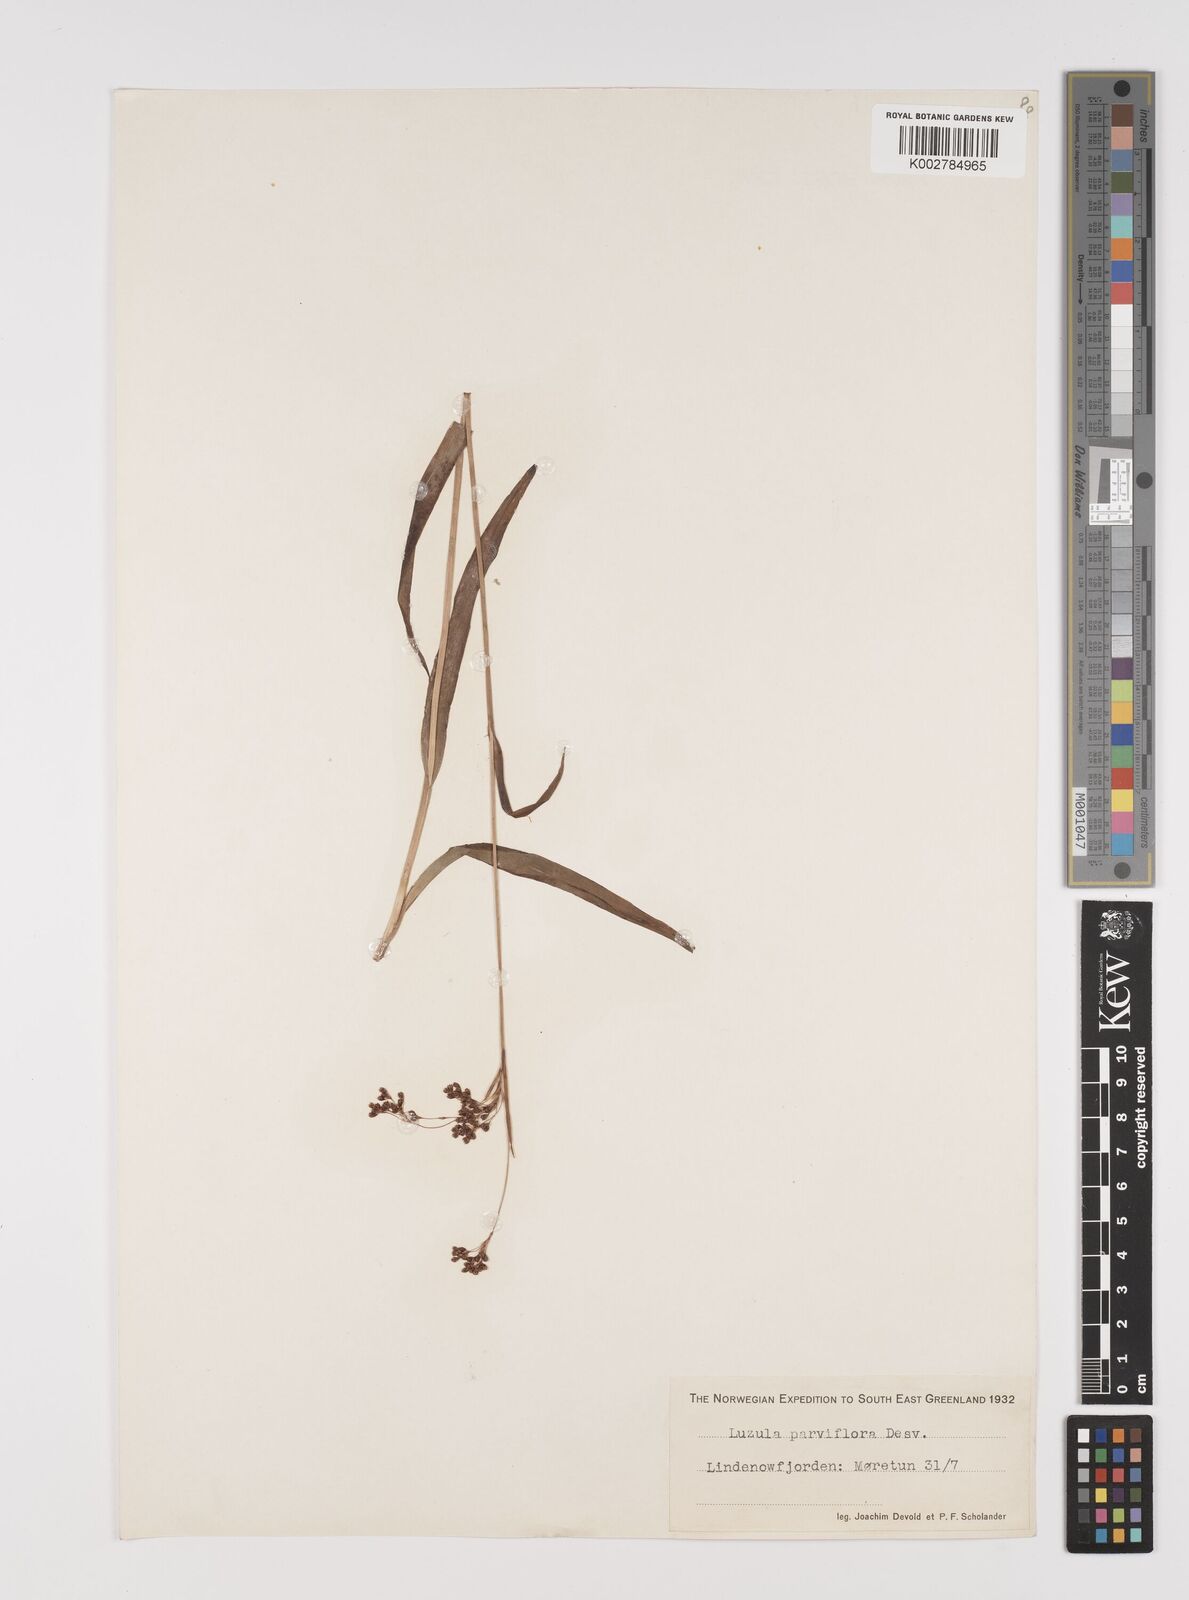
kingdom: Plantae
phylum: Tracheophyta
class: Liliopsida
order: Poales
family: Juncaceae
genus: Luzula
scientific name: Luzula parviflora
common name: Millet woodrush
